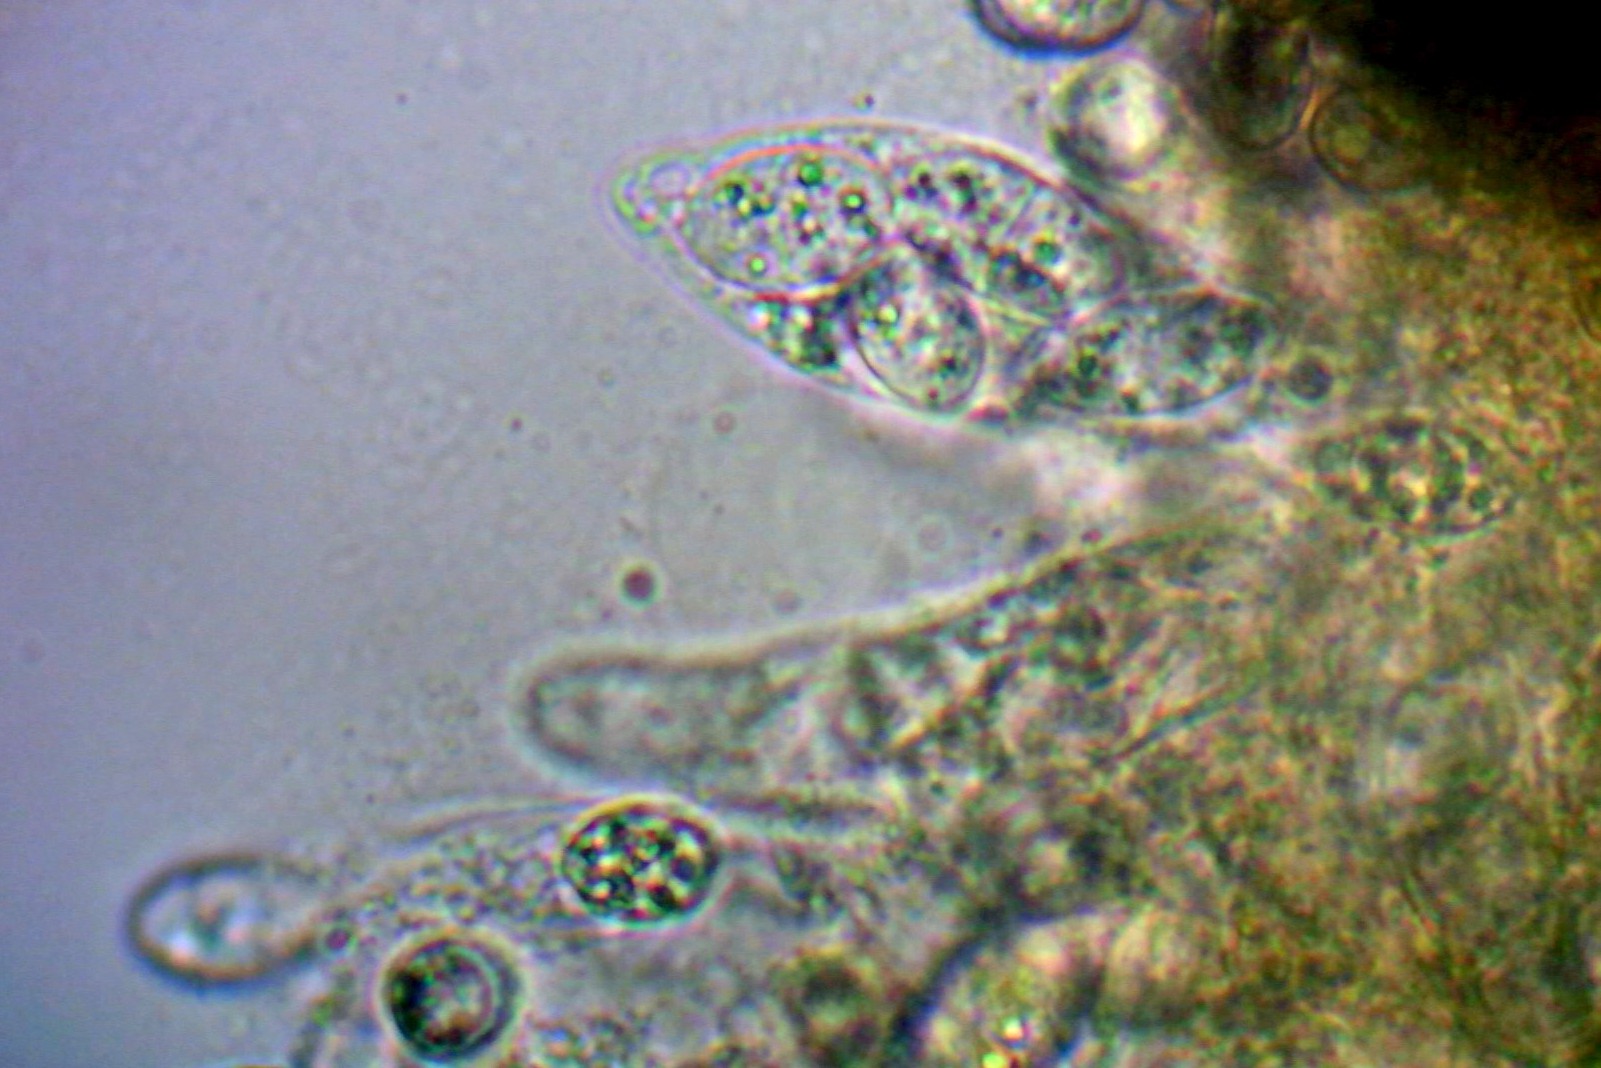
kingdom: Fungi
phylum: Ascomycota
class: Sordariomycetes
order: Hypocreales
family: Bionectriaceae
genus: Paranectria
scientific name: Paranectria oropensis
